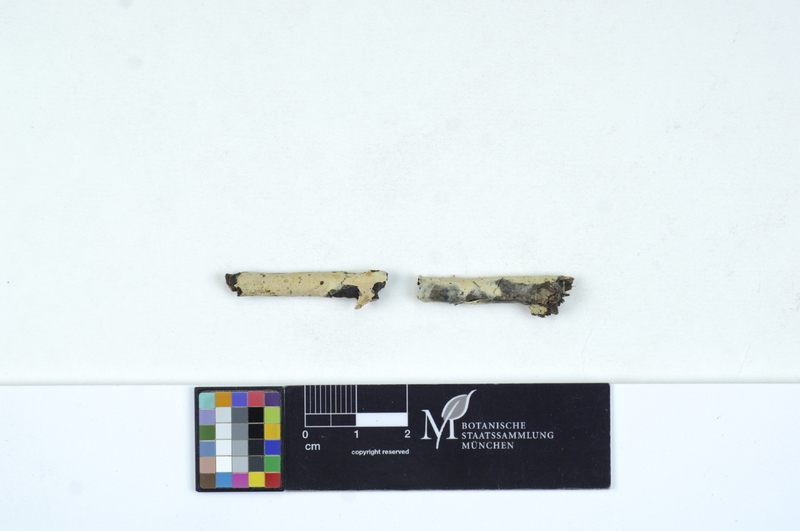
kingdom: Plantae
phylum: Tracheophyta
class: Magnoliopsida
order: Fagales
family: Juglandaceae
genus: Juglans
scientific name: Juglans regia
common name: Walnut
